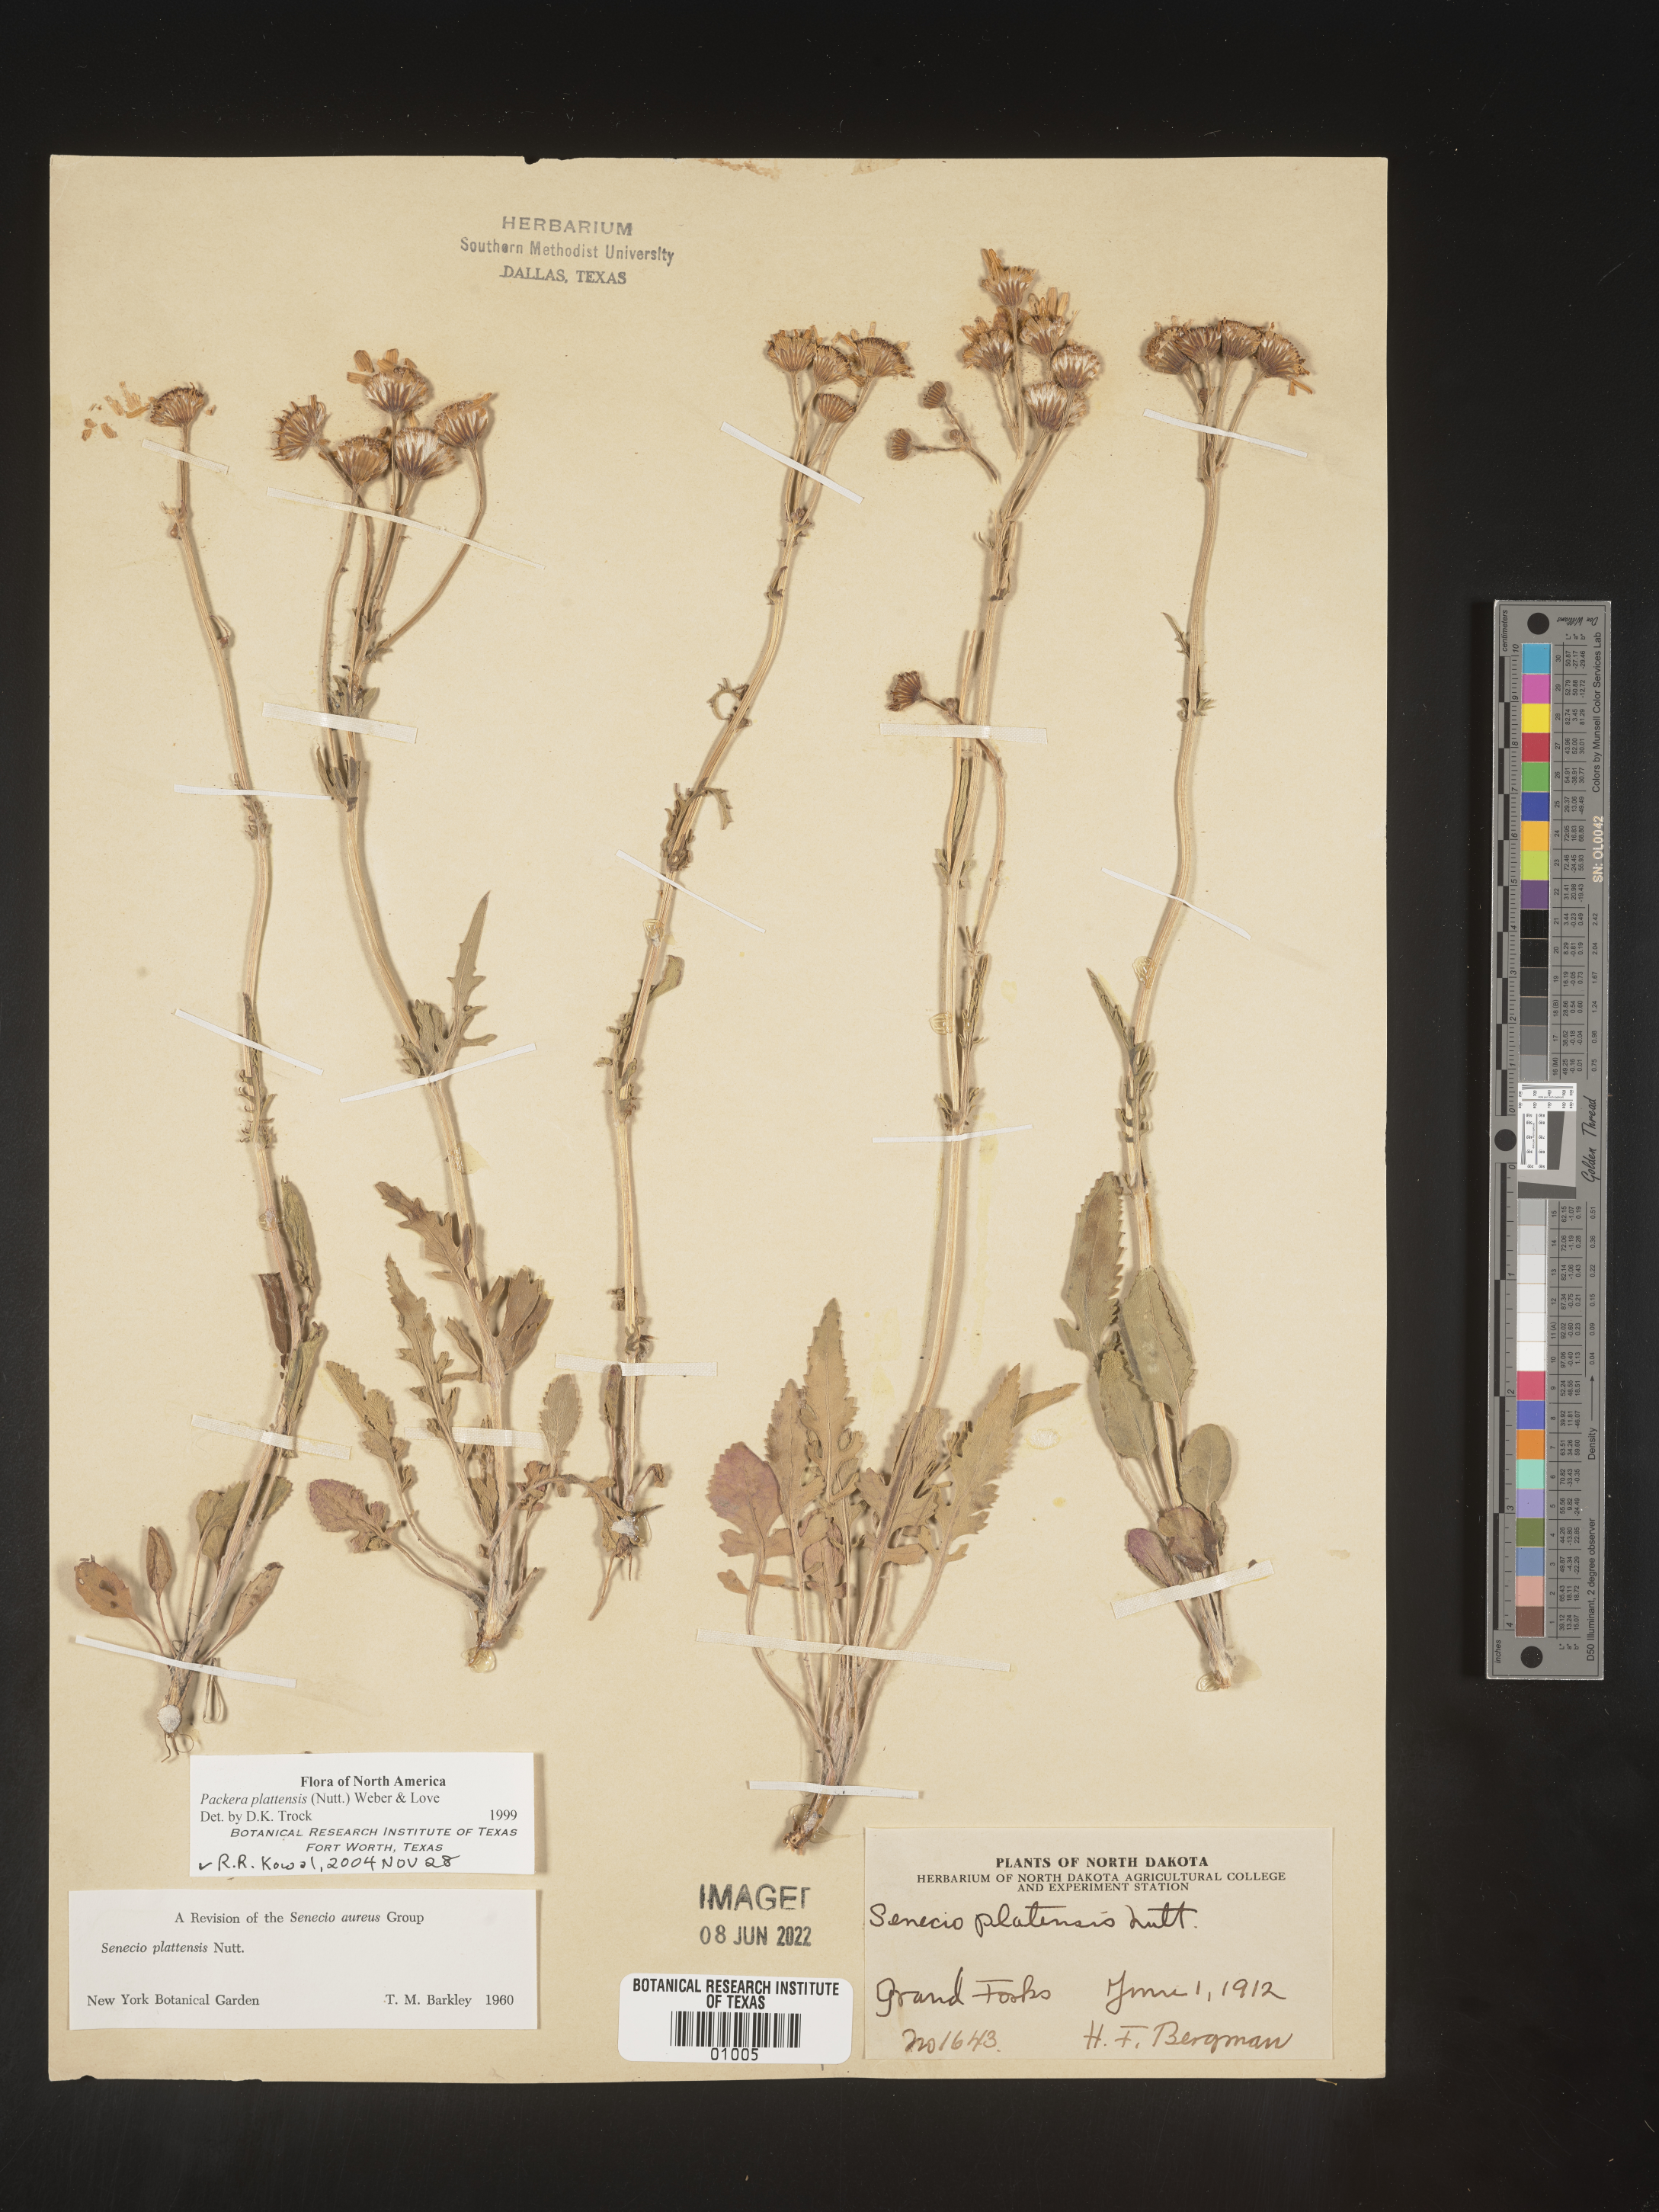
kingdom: Plantae
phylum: Tracheophyta
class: Magnoliopsida
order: Asterales
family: Asteraceae
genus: Packera
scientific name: Packera plattensis
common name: Prairie groundsel
